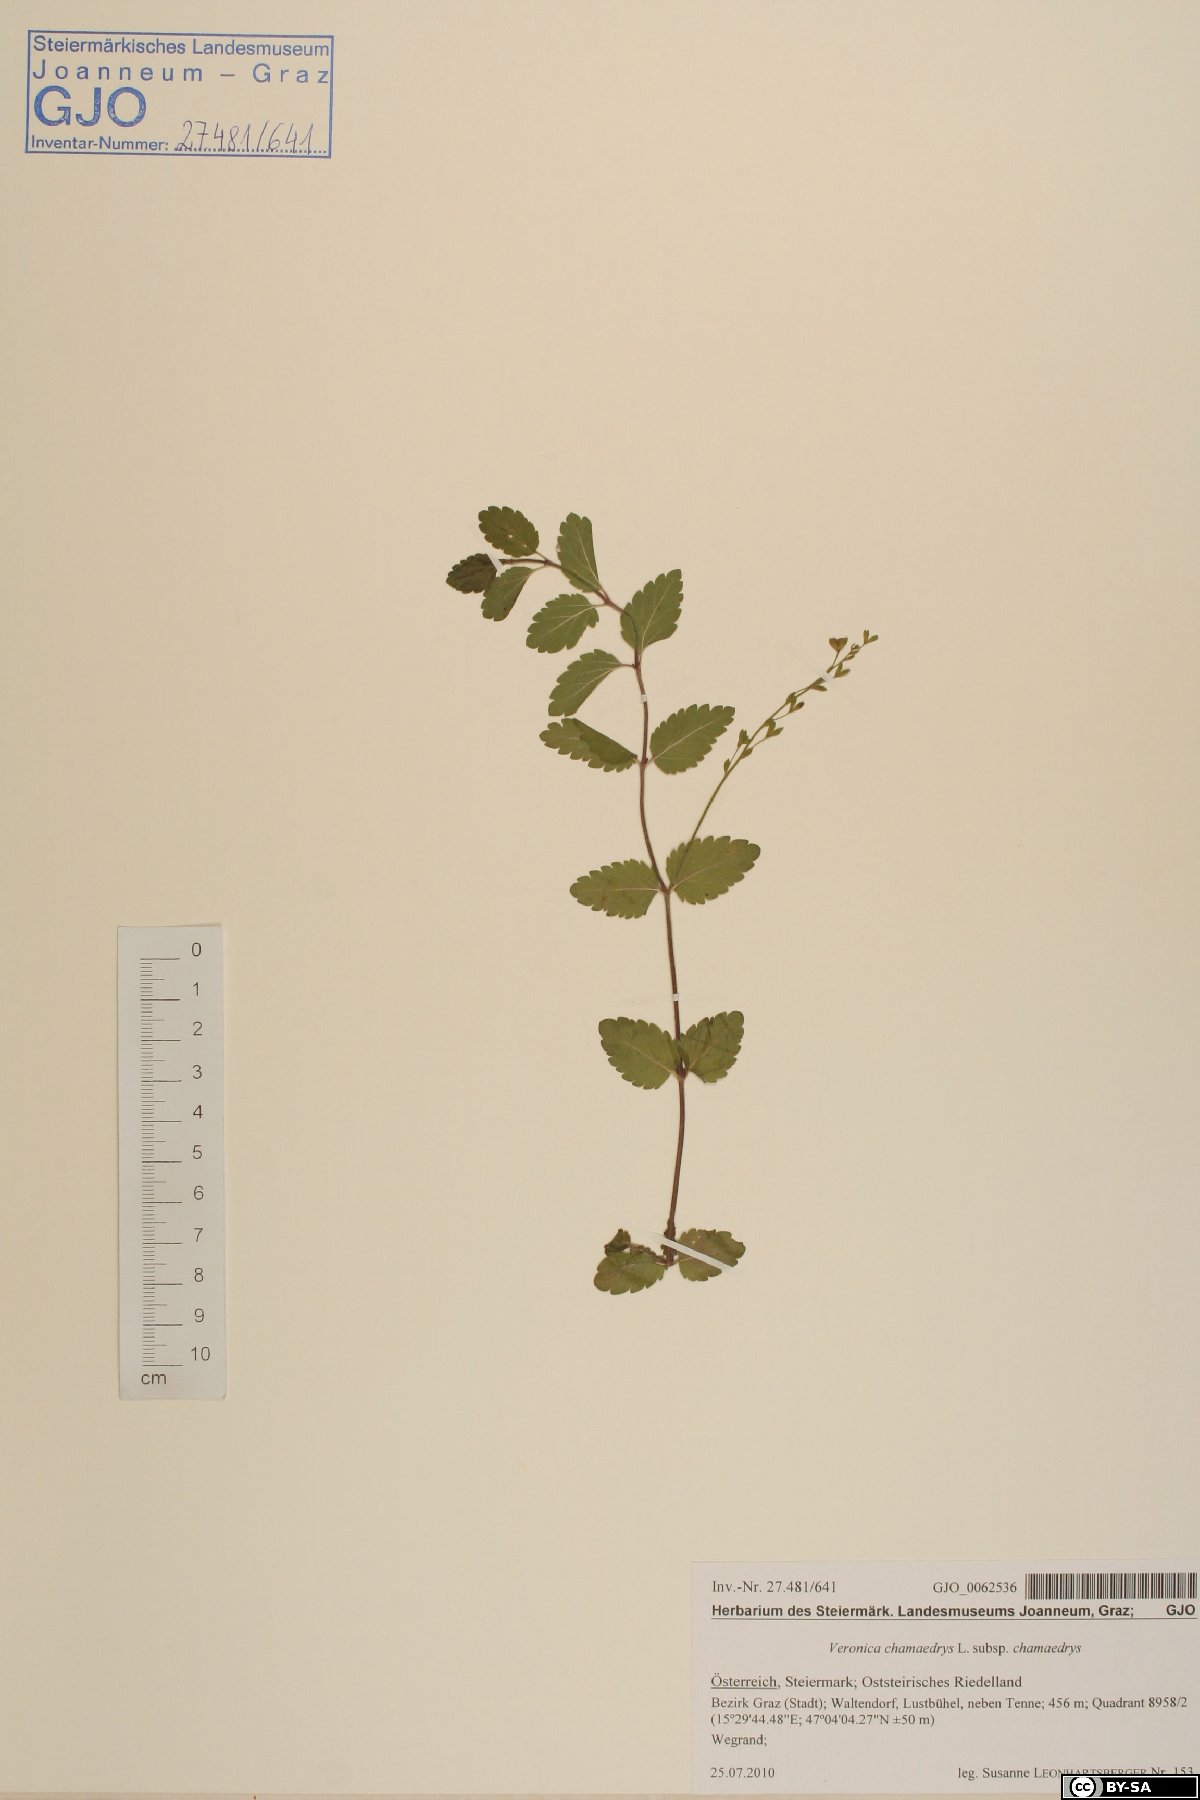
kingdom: Plantae
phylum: Tracheophyta
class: Magnoliopsida
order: Lamiales
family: Plantaginaceae
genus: Veronica
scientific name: Veronica chamaedrys
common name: Germander speedwell
